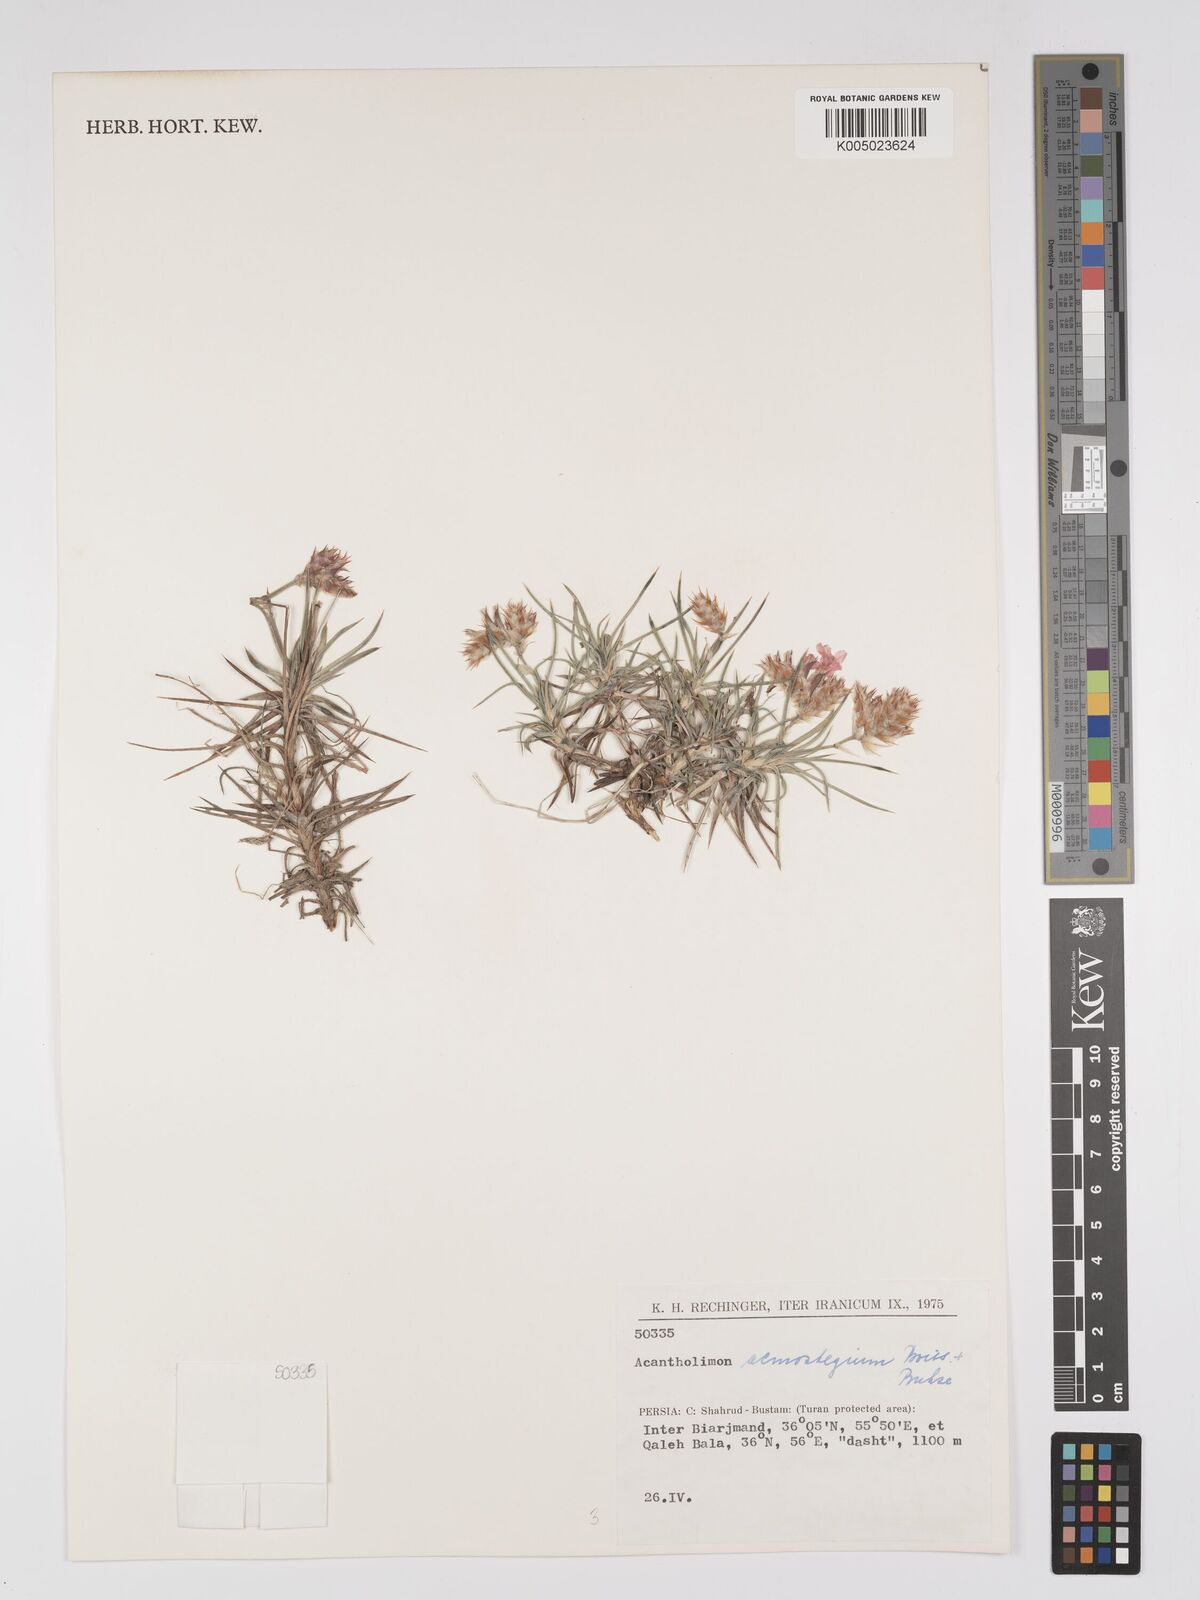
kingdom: Plantae
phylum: Tracheophyta
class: Magnoliopsida
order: Caryophyllales
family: Plumbaginaceae
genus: Acantholimon
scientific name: Acantholimon acmostegium
